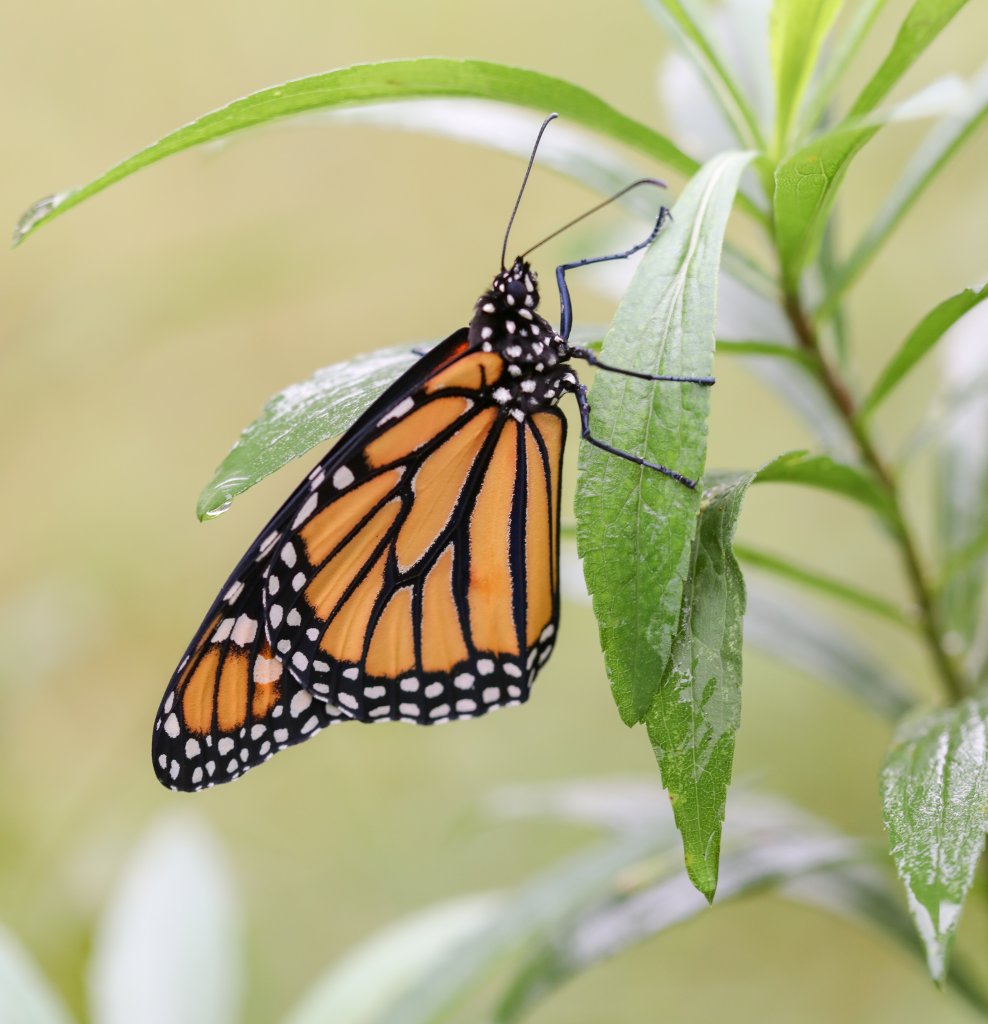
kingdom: Animalia
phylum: Arthropoda
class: Insecta
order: Lepidoptera
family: Nymphalidae
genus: Danaus
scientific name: Danaus plexippus
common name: Monarch
